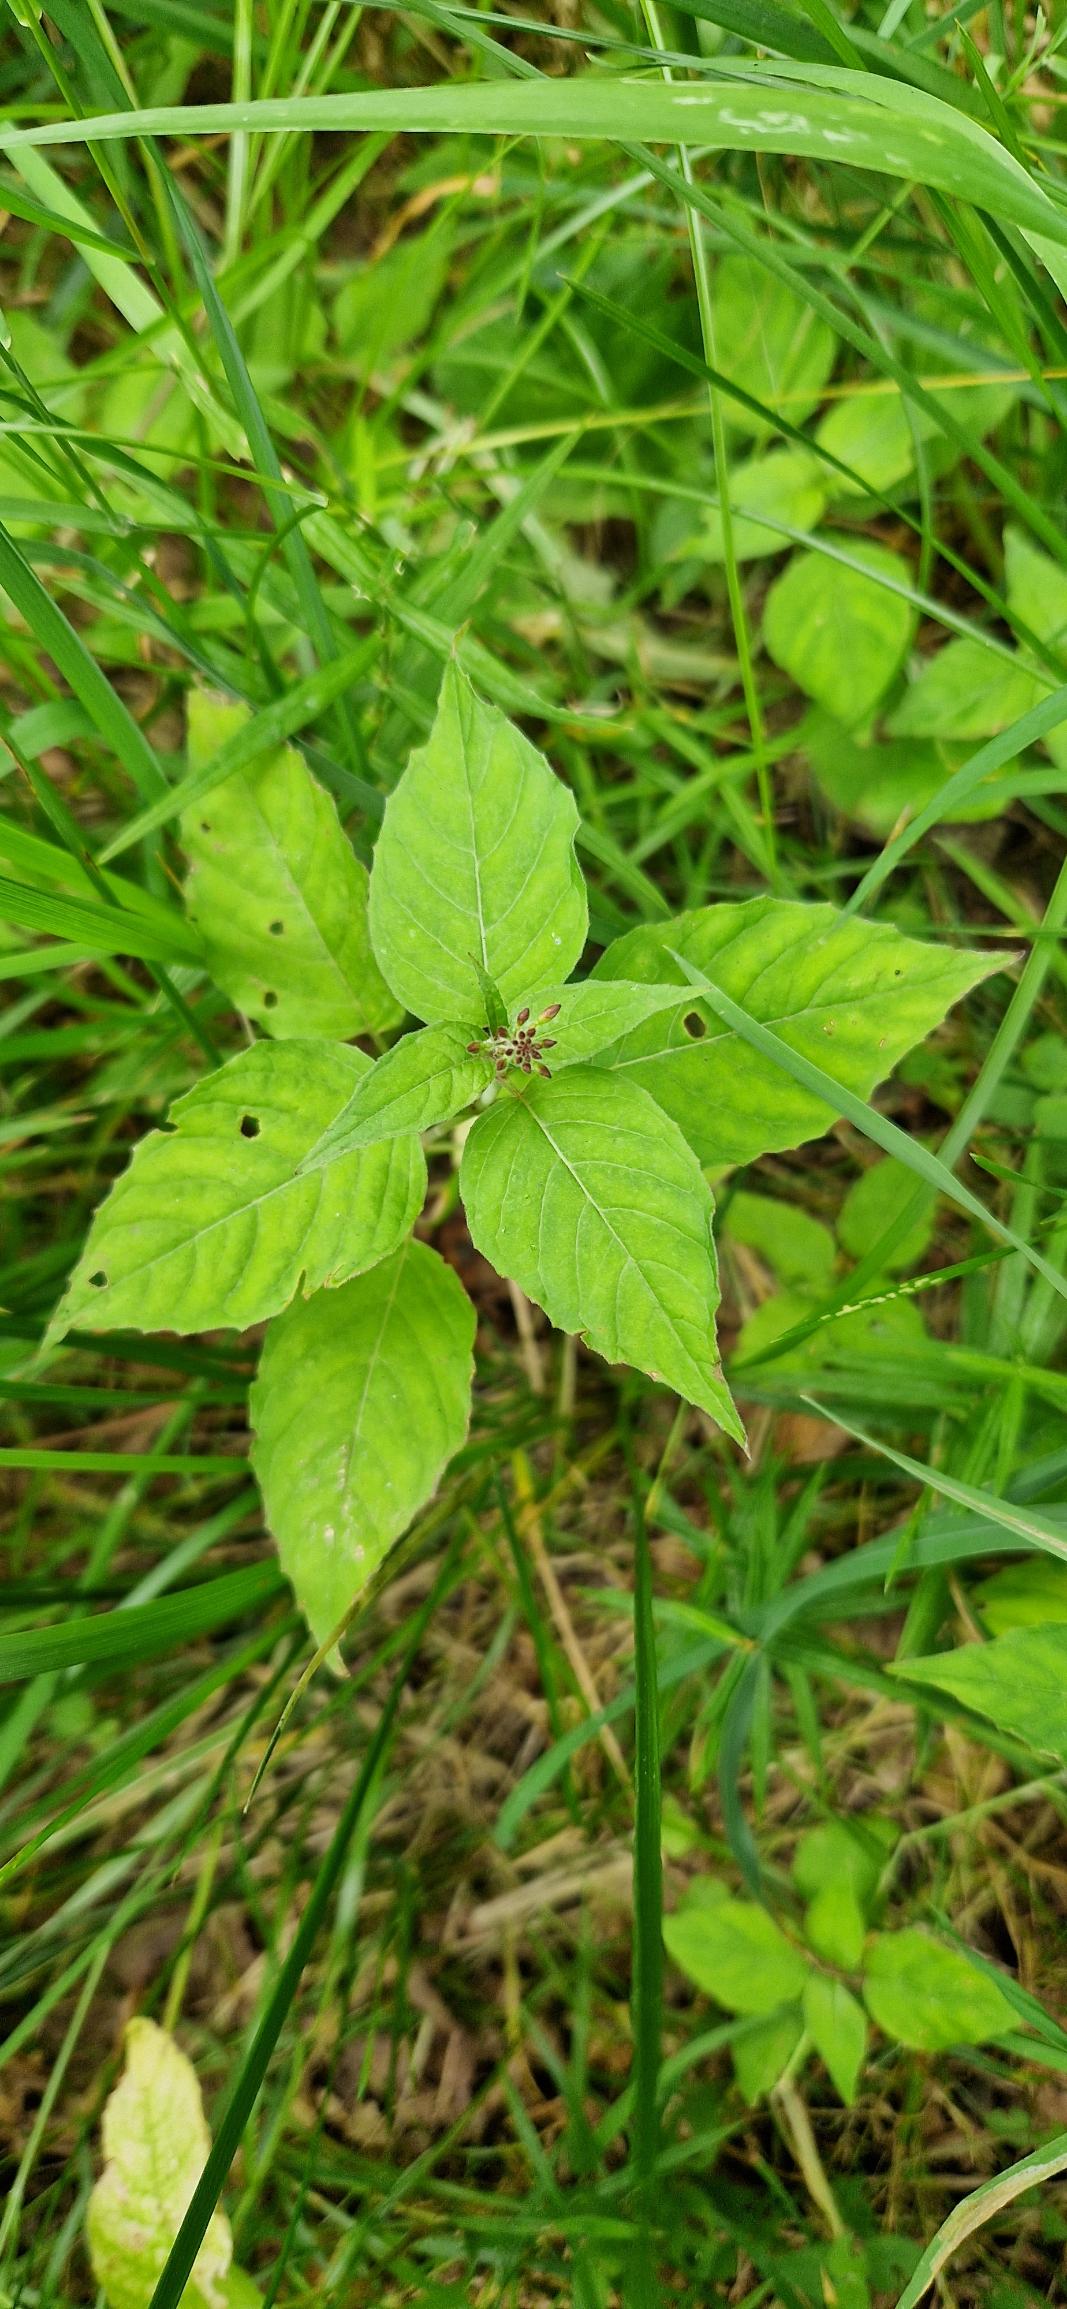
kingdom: Plantae
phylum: Tracheophyta
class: Magnoliopsida
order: Myrtales
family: Onagraceae
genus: Circaea
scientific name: Circaea lutetiana
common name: Dunet steffensurt
